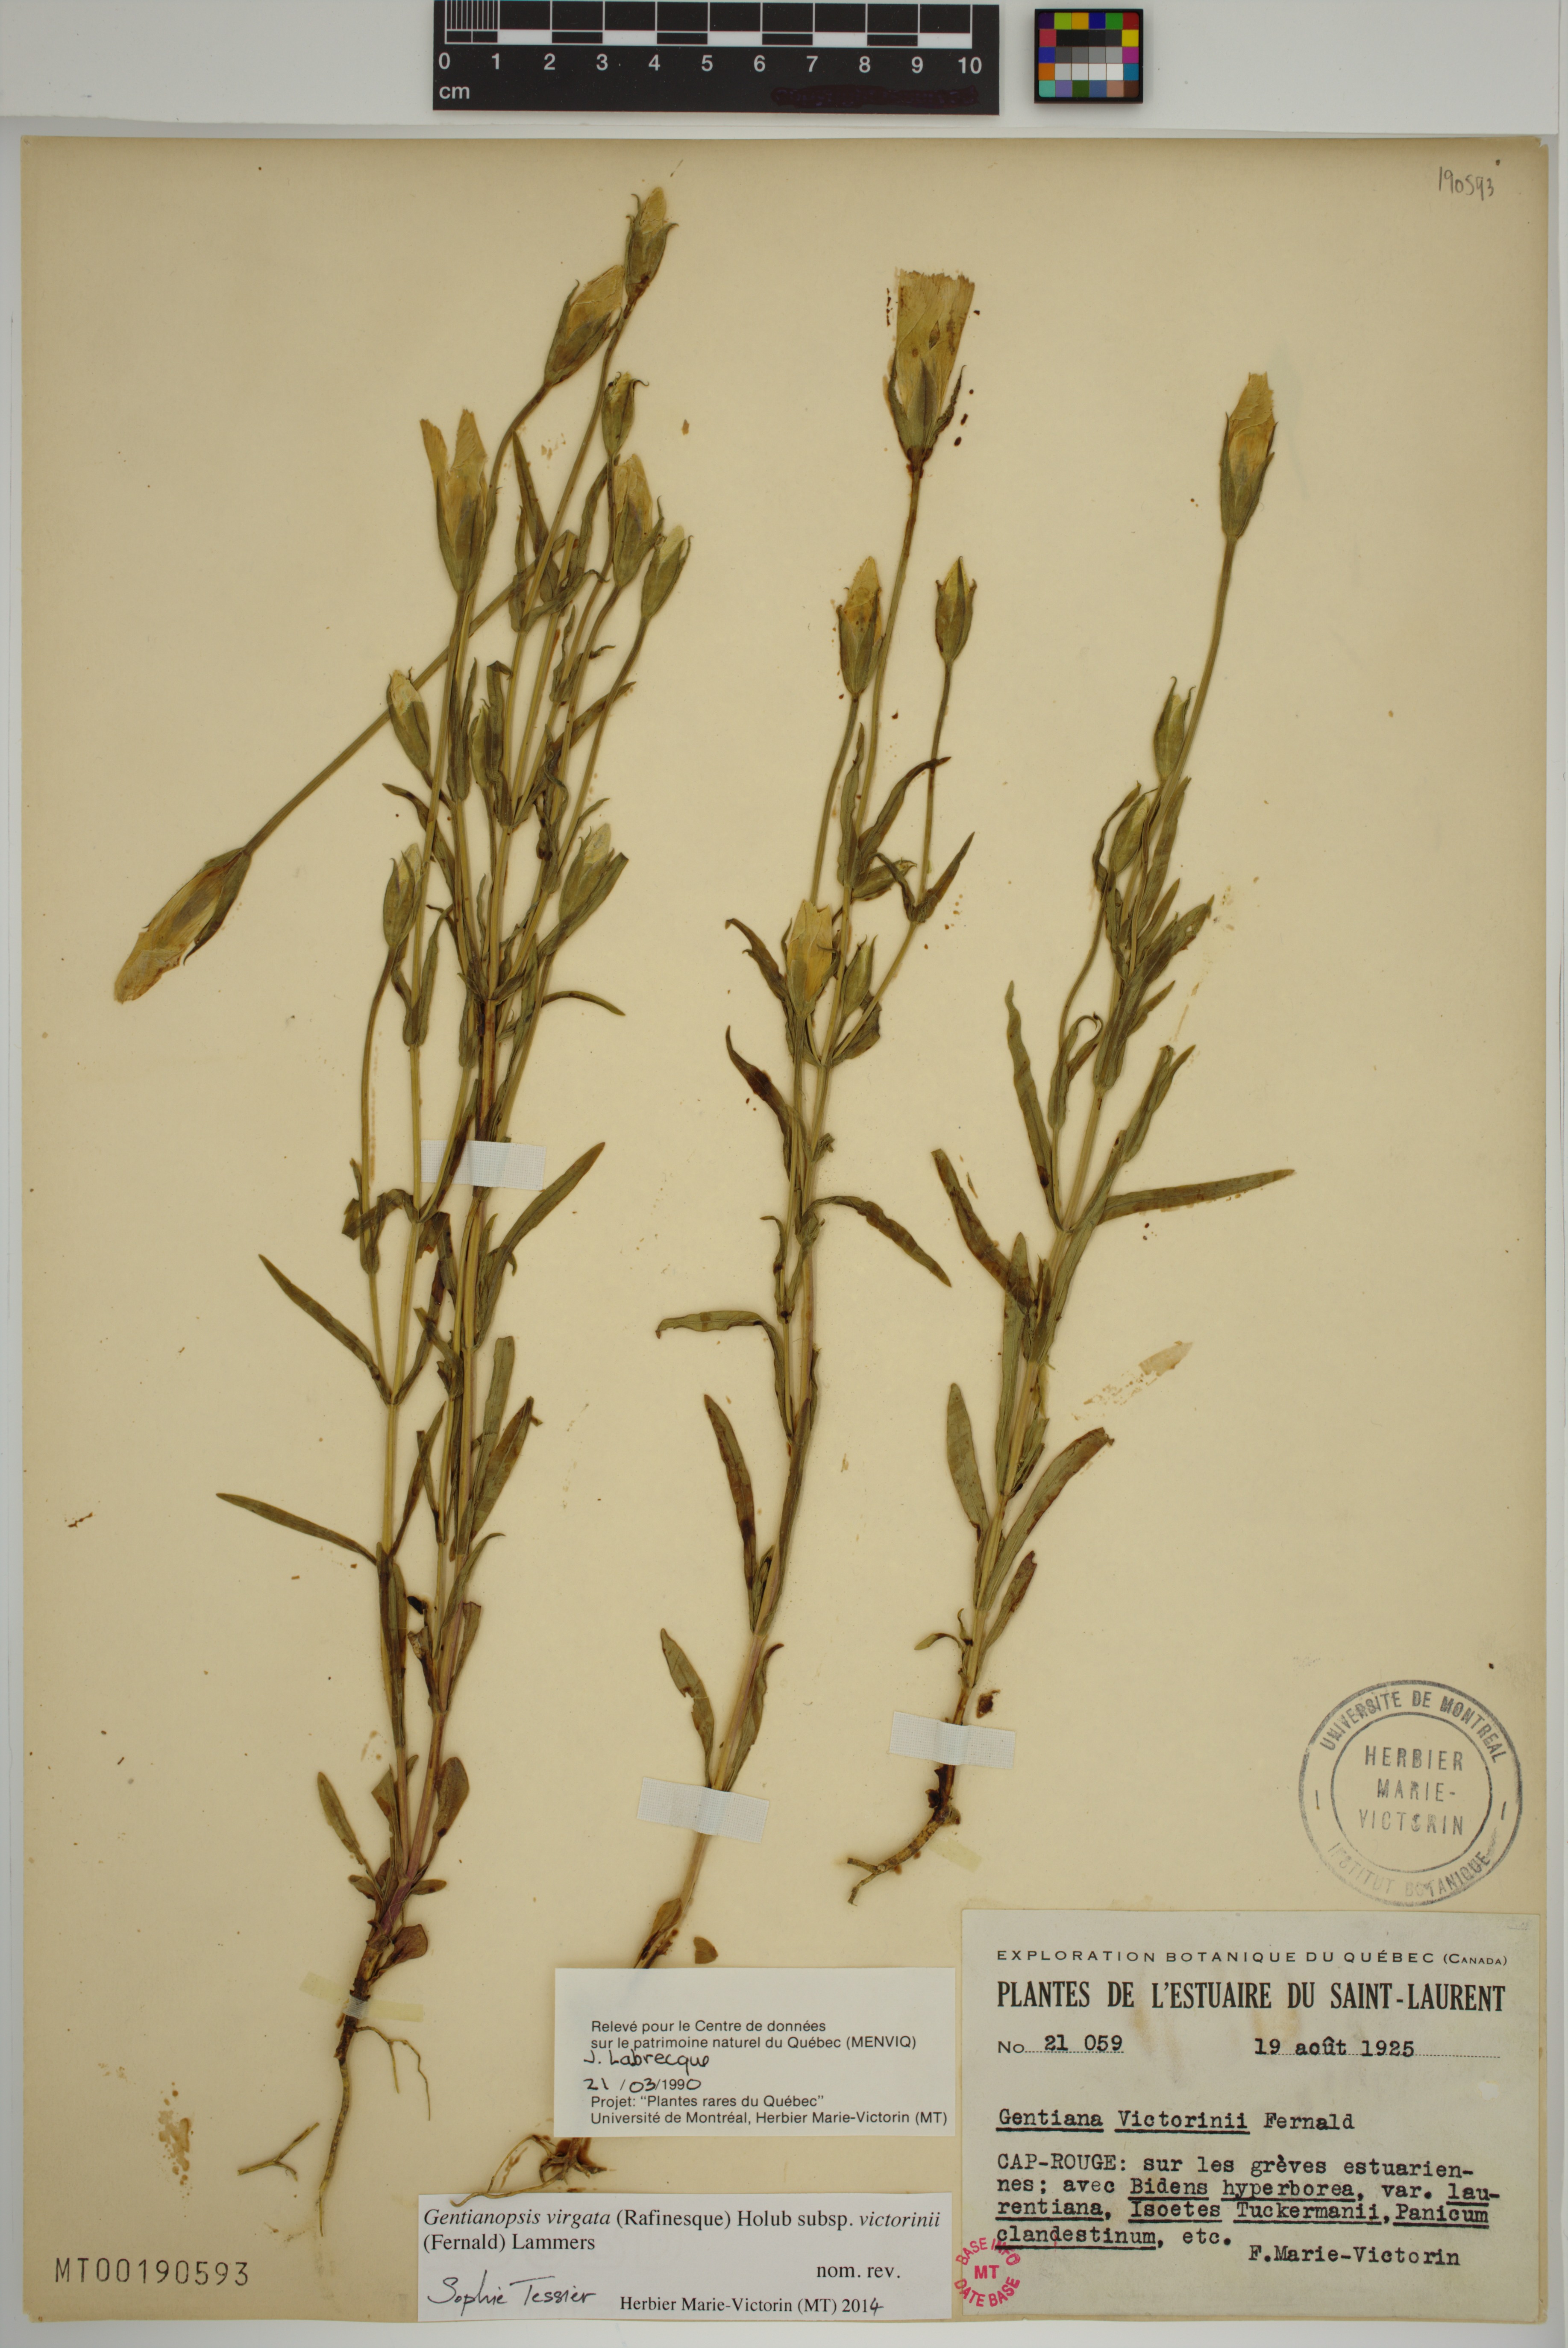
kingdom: Plantae
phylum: Tracheophyta
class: Magnoliopsida
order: Gentianales
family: Gentianaceae
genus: Gentianopsis
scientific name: Gentianopsis victorinii
